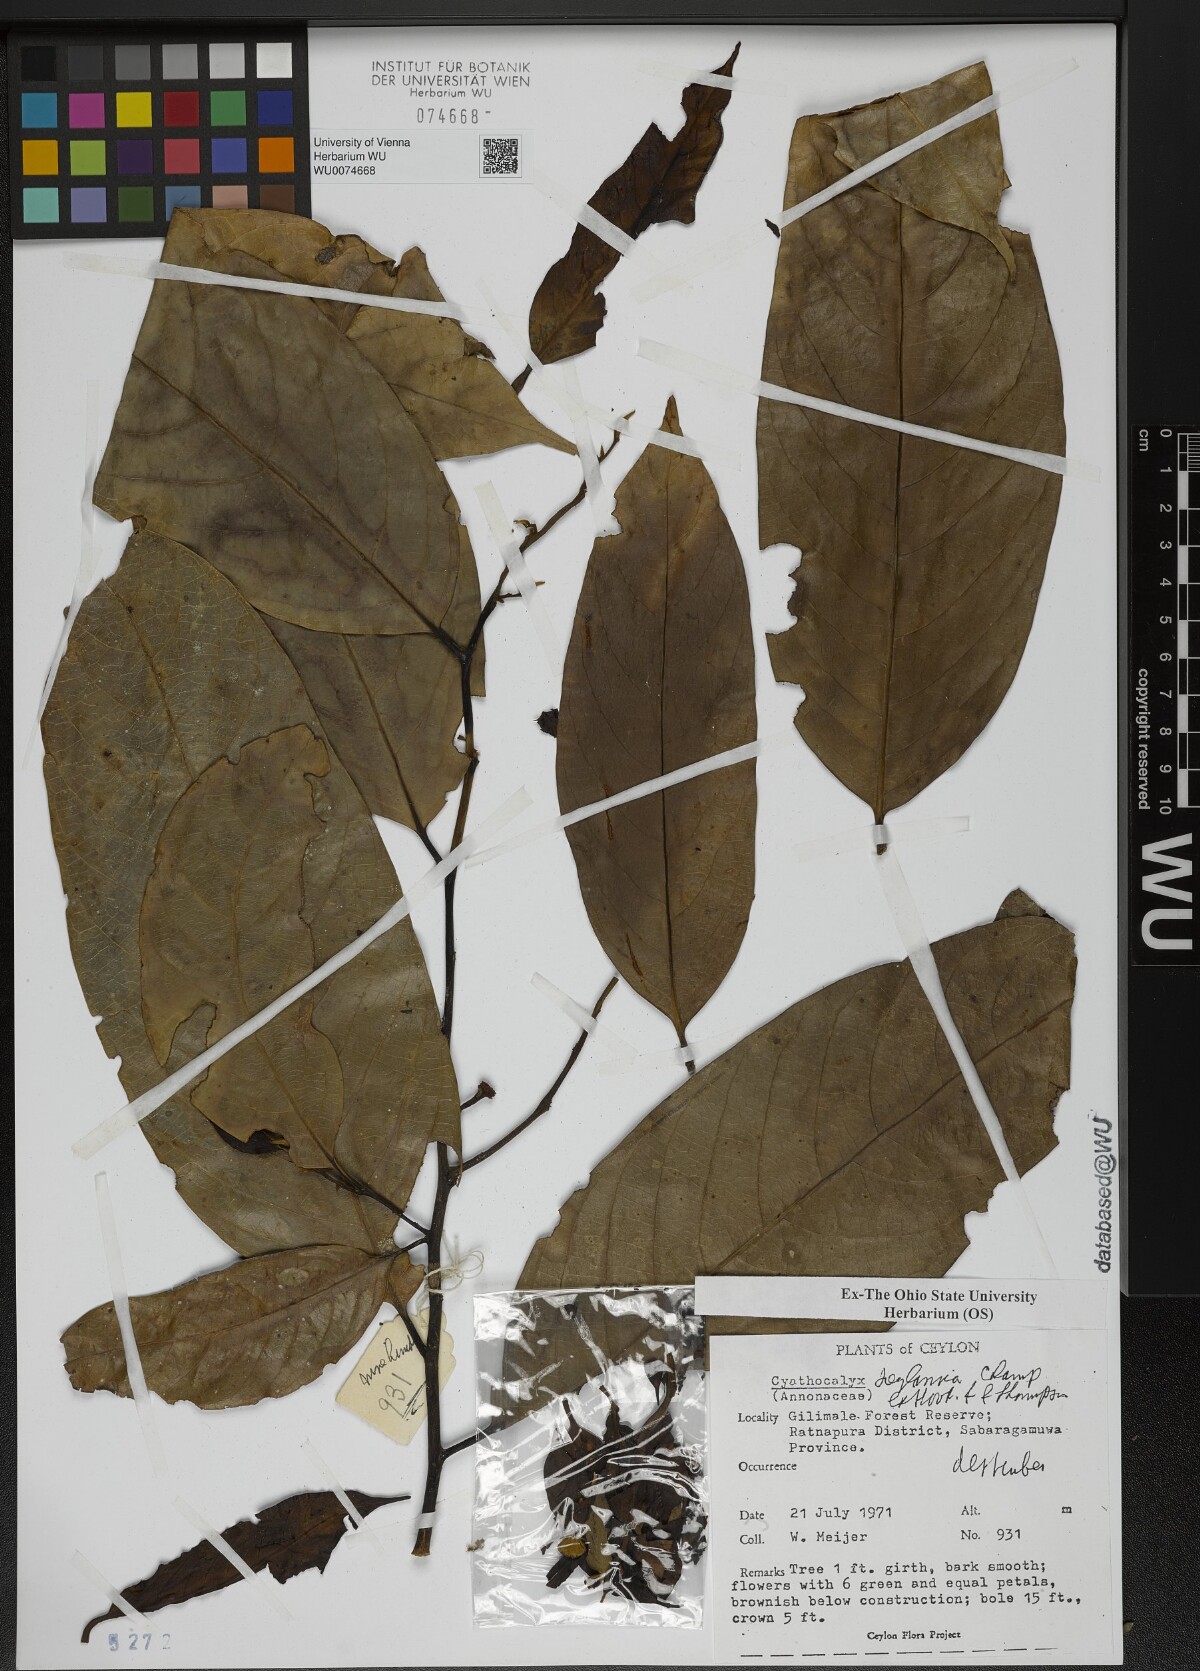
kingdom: Plantae
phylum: Tracheophyta
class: Magnoliopsida
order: Magnoliales
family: Annonaceae
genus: Cyathocalyx
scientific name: Cyathocalyx zeylanicus
